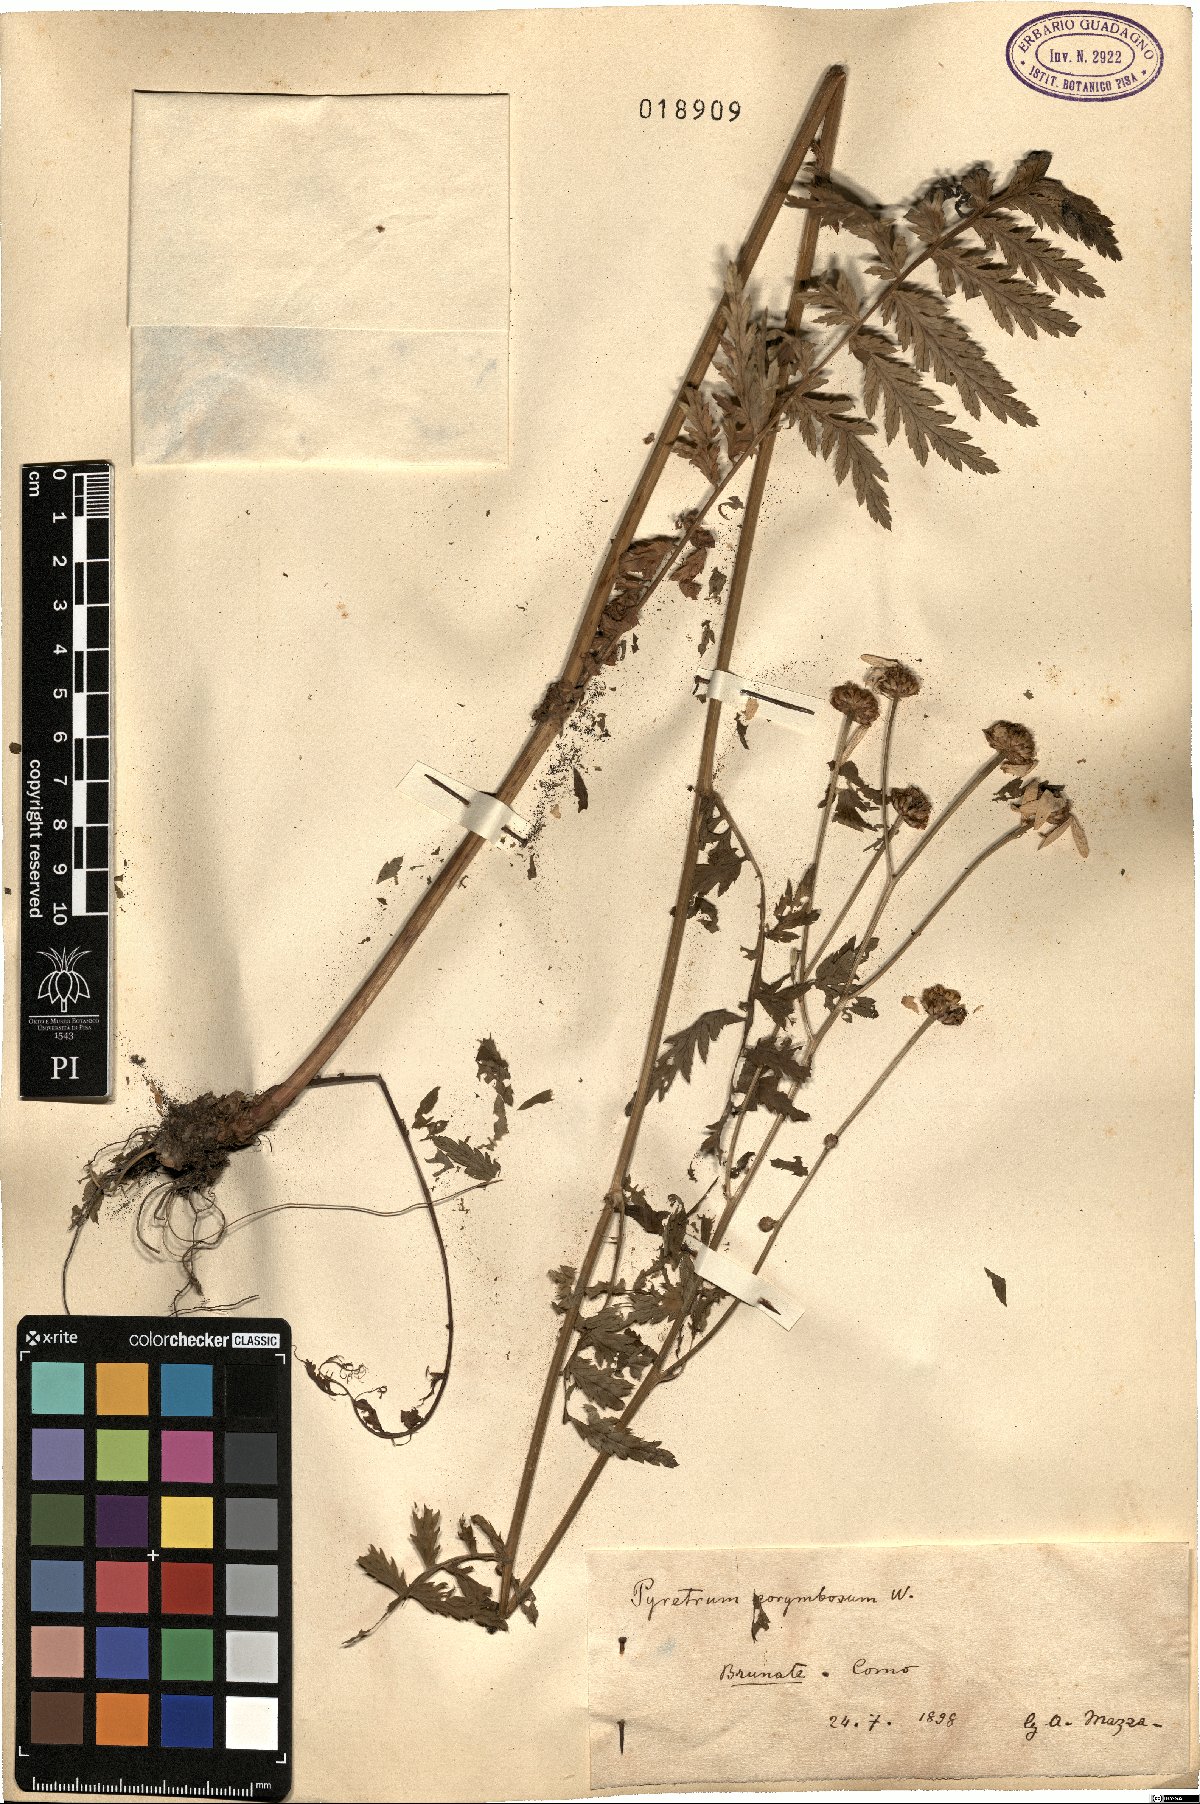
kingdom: Plantae
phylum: Tracheophyta
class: Magnoliopsida
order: Asterales
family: Asteraceae
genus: Tanacetum
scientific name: Tanacetum corymbosum
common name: Scentless feverfew
